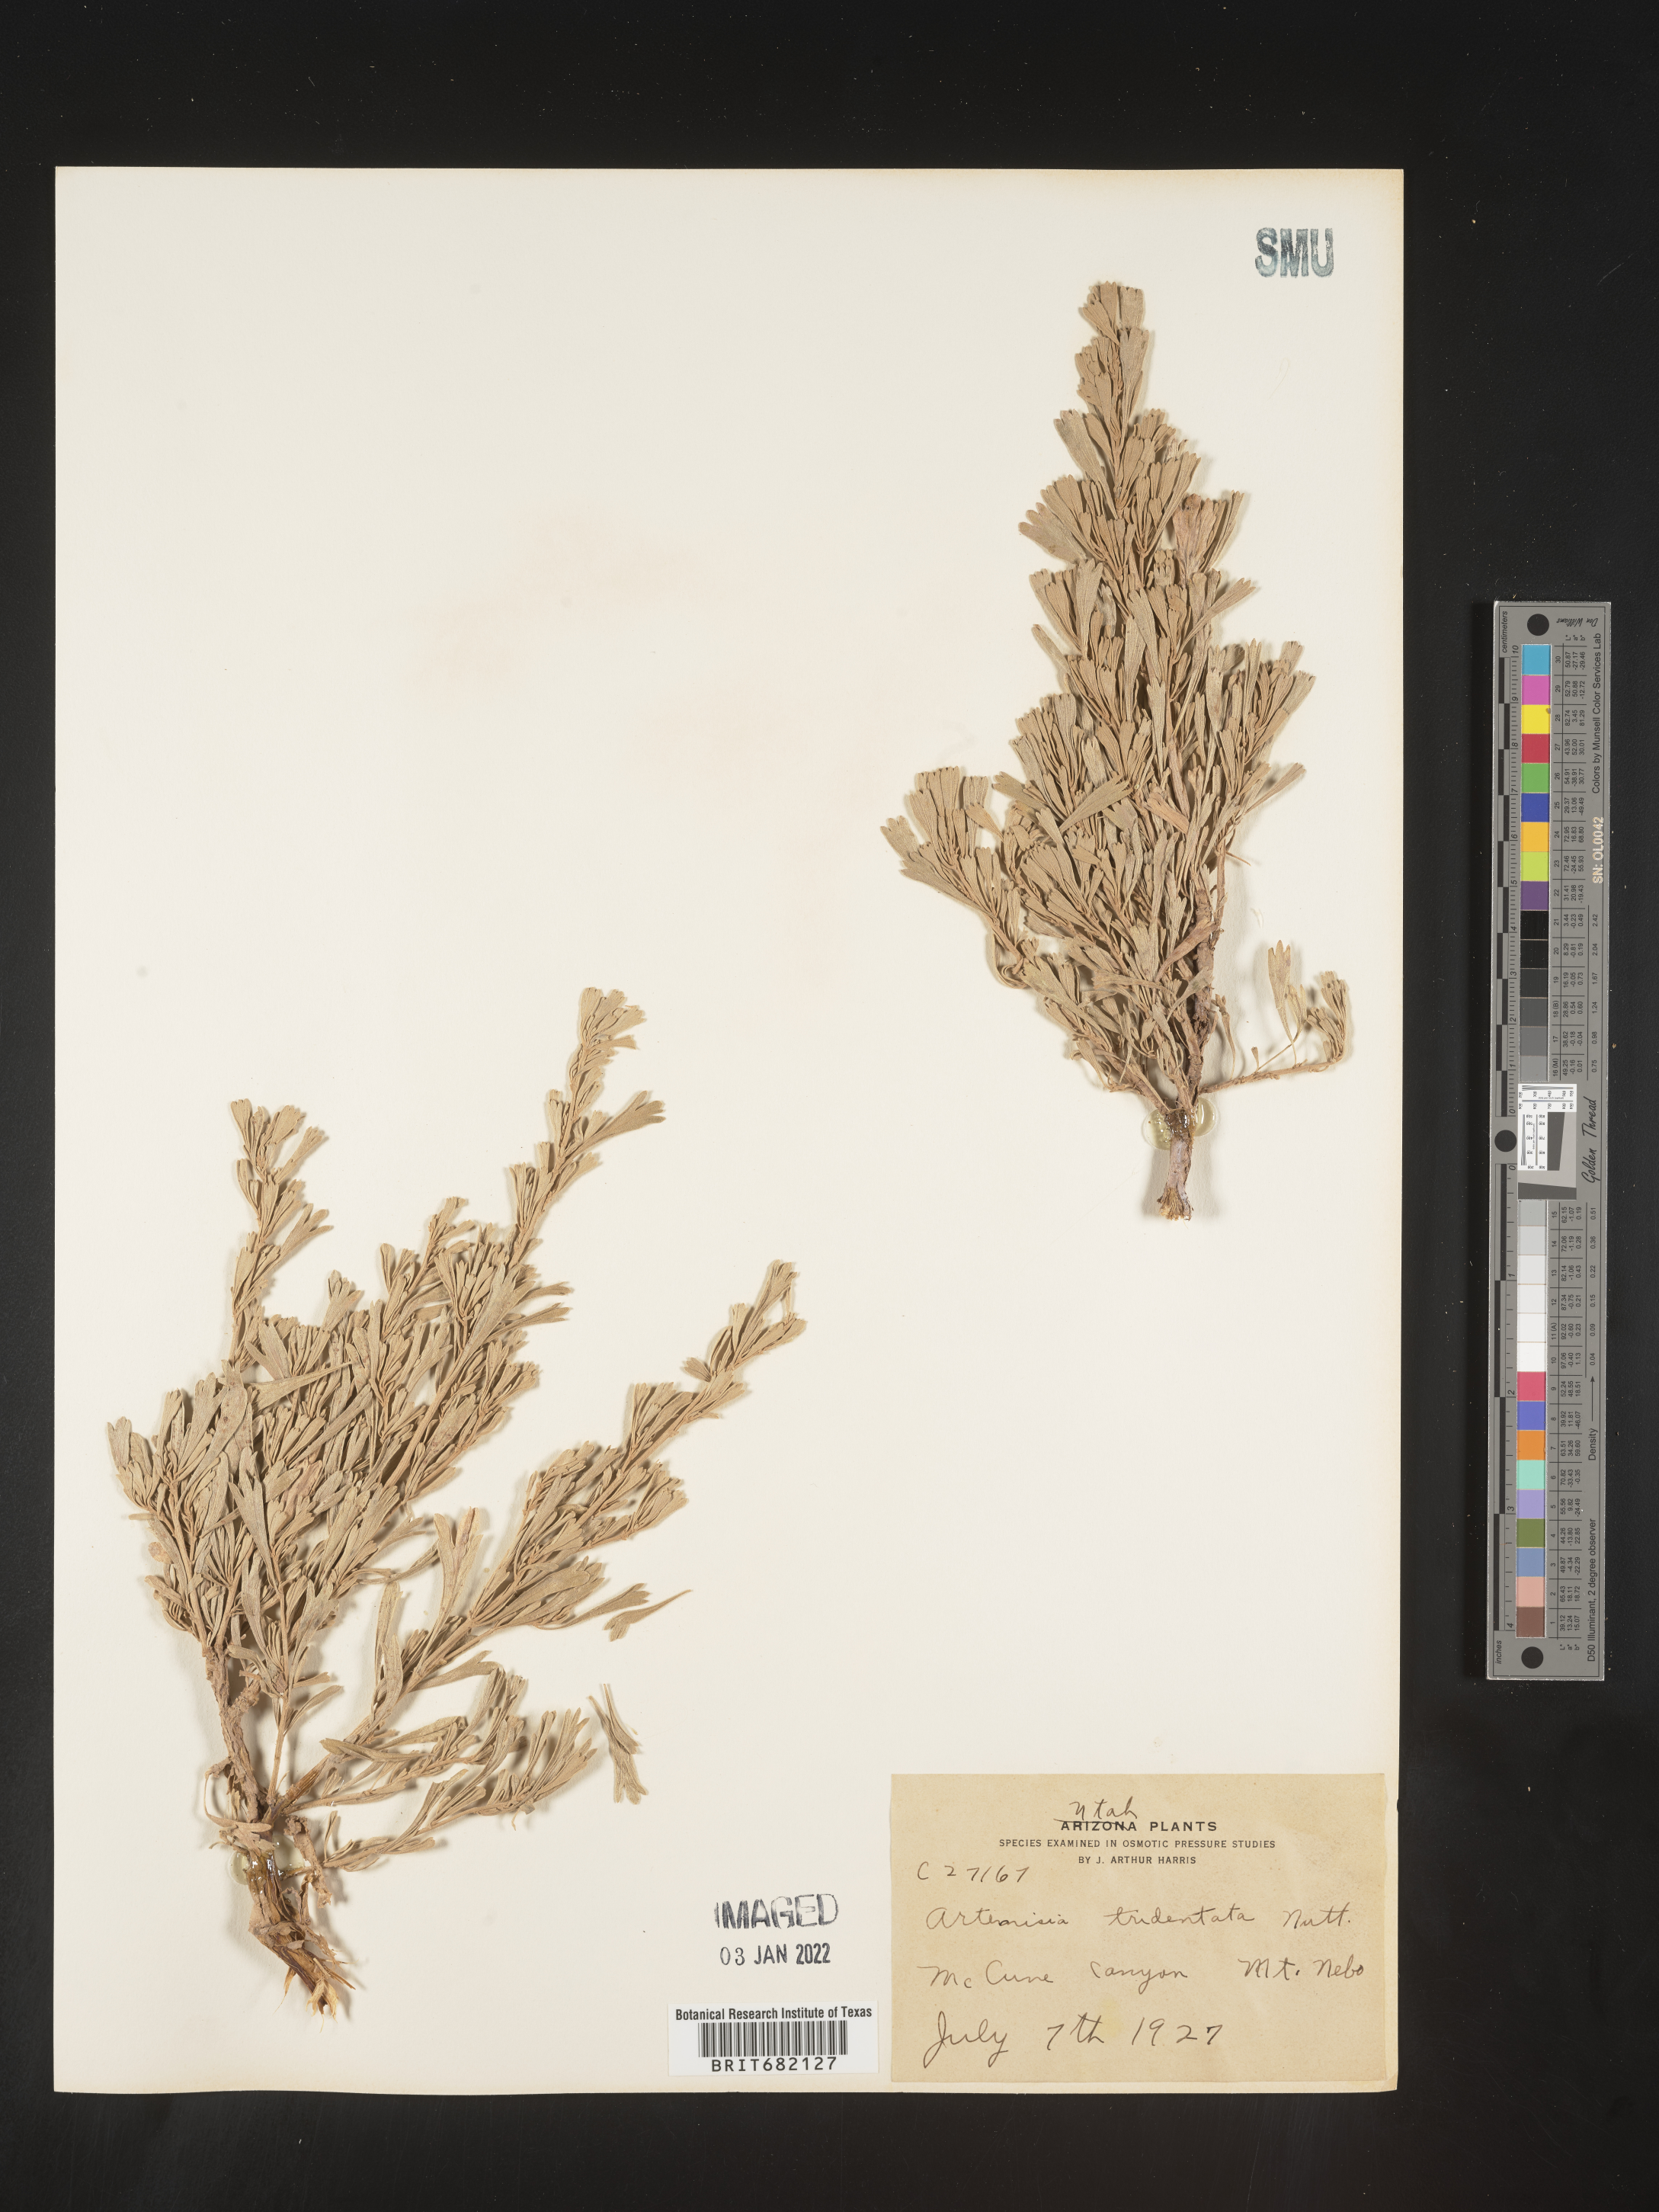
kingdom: Plantae
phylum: Tracheophyta
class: Magnoliopsida
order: Asterales
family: Asteraceae
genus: Artemisia
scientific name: Artemisia tridentata
